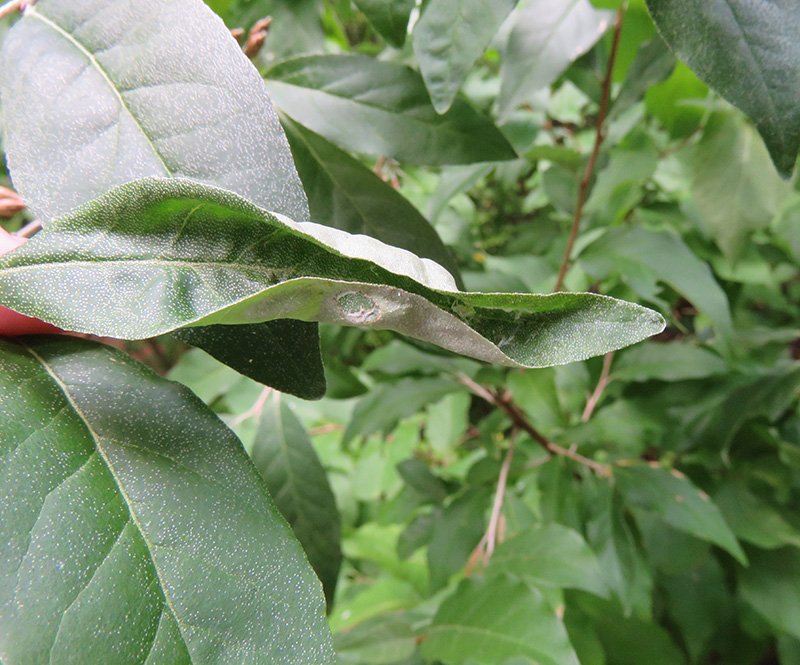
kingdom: Animalia
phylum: Arthropoda
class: Insecta
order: Lepidoptera
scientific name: Lepidoptera
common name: Butterflies
